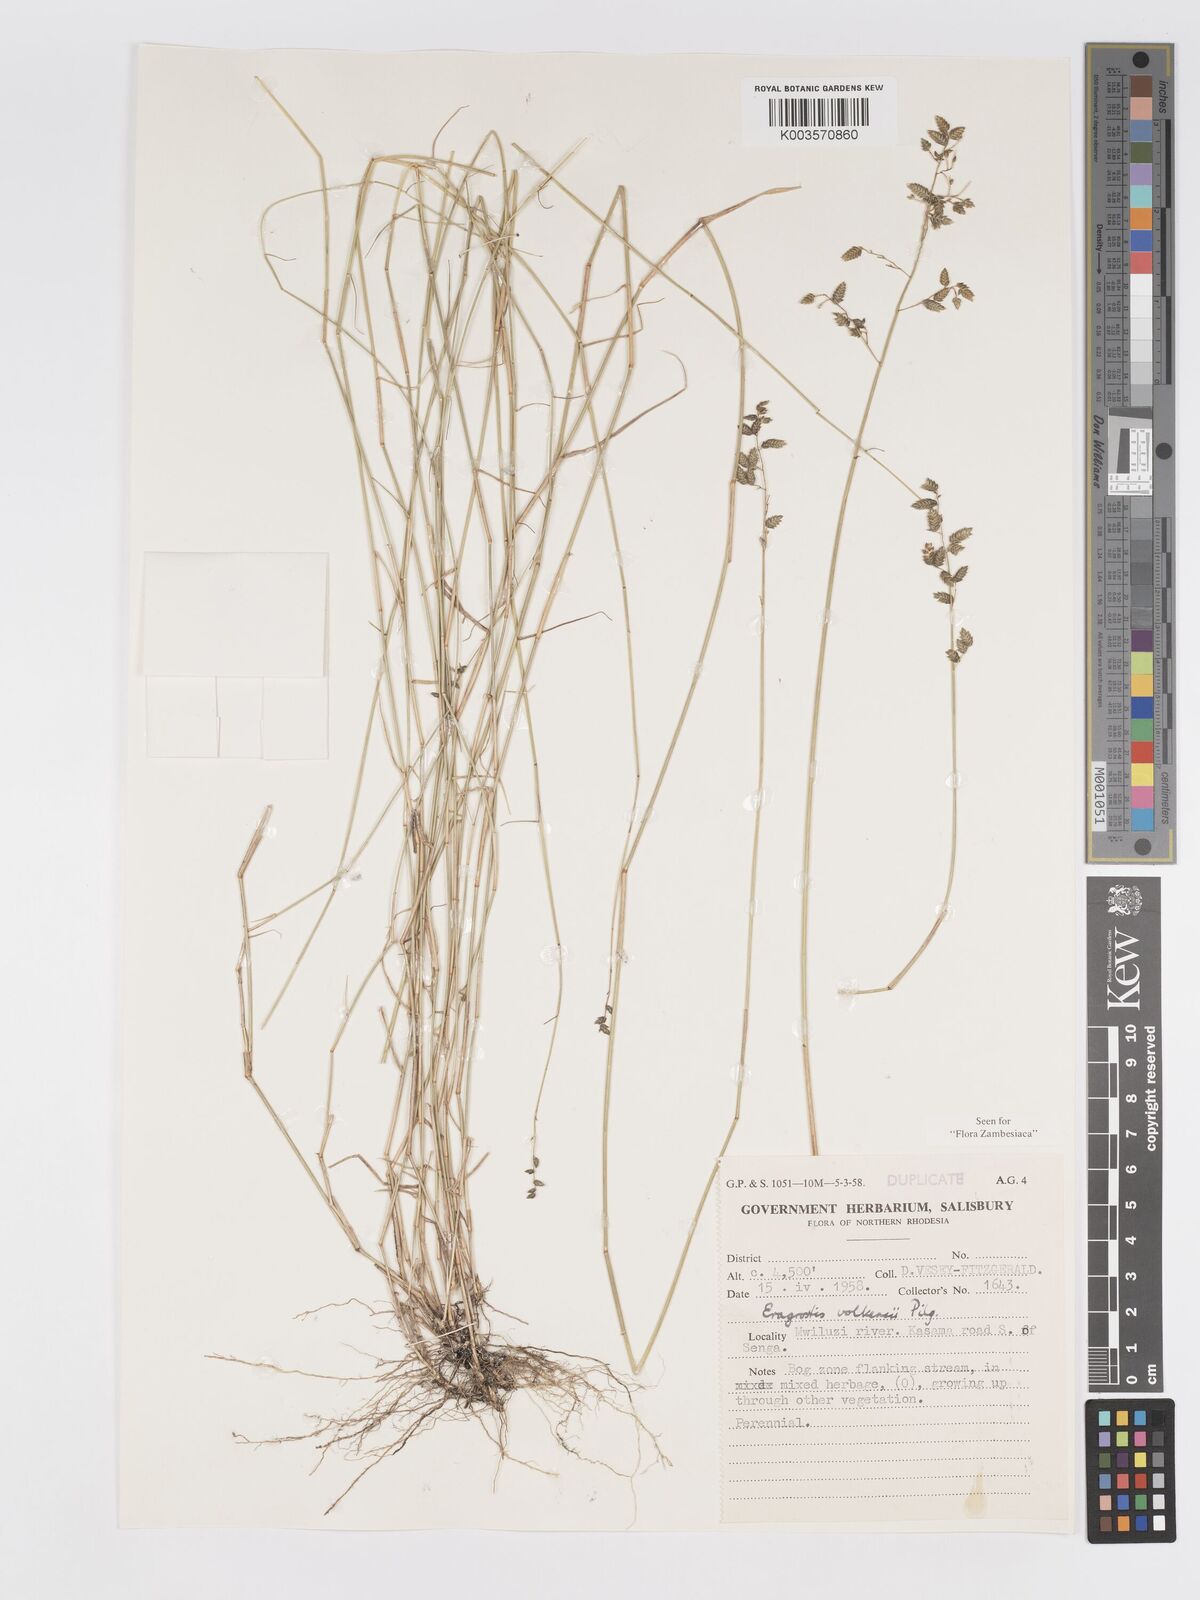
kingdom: Plantae
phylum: Tracheophyta
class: Liliopsida
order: Poales
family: Poaceae
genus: Eragrostis
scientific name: Eragrostis volkensii
